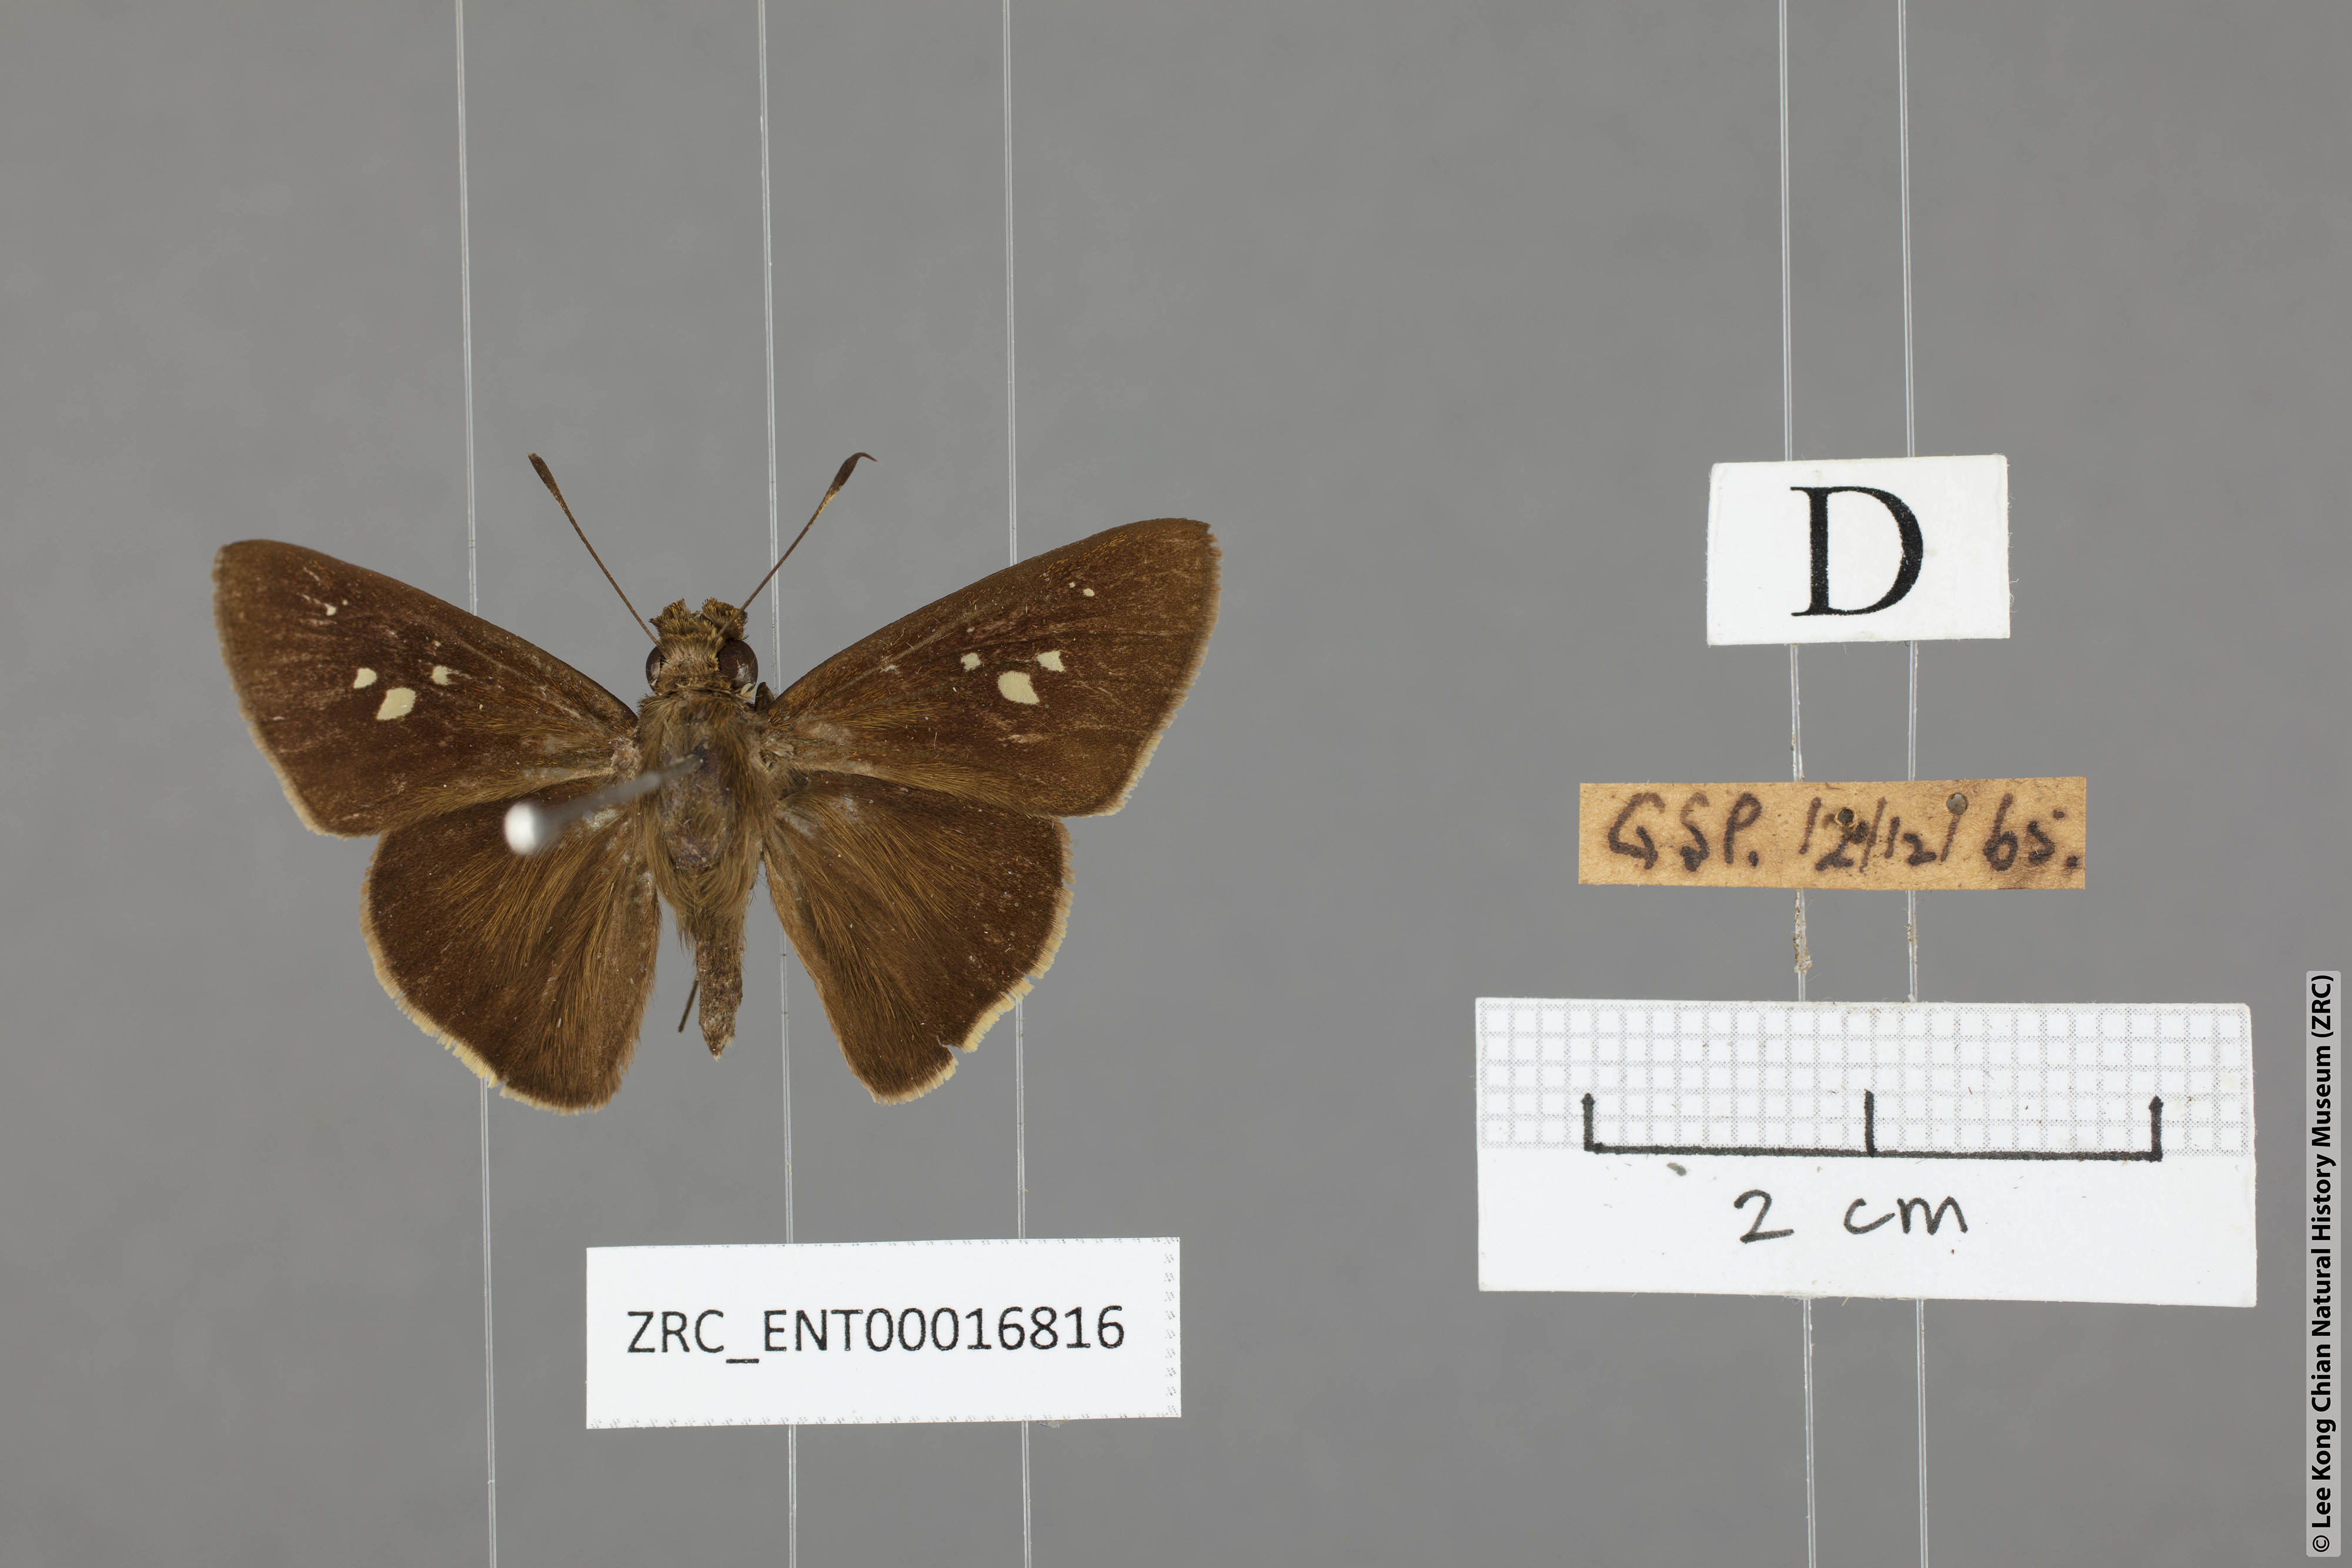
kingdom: Animalia
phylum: Arthropoda
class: Insecta
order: Lepidoptera
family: Hesperiidae
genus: Caltoris
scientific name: Caltoris cormasa
